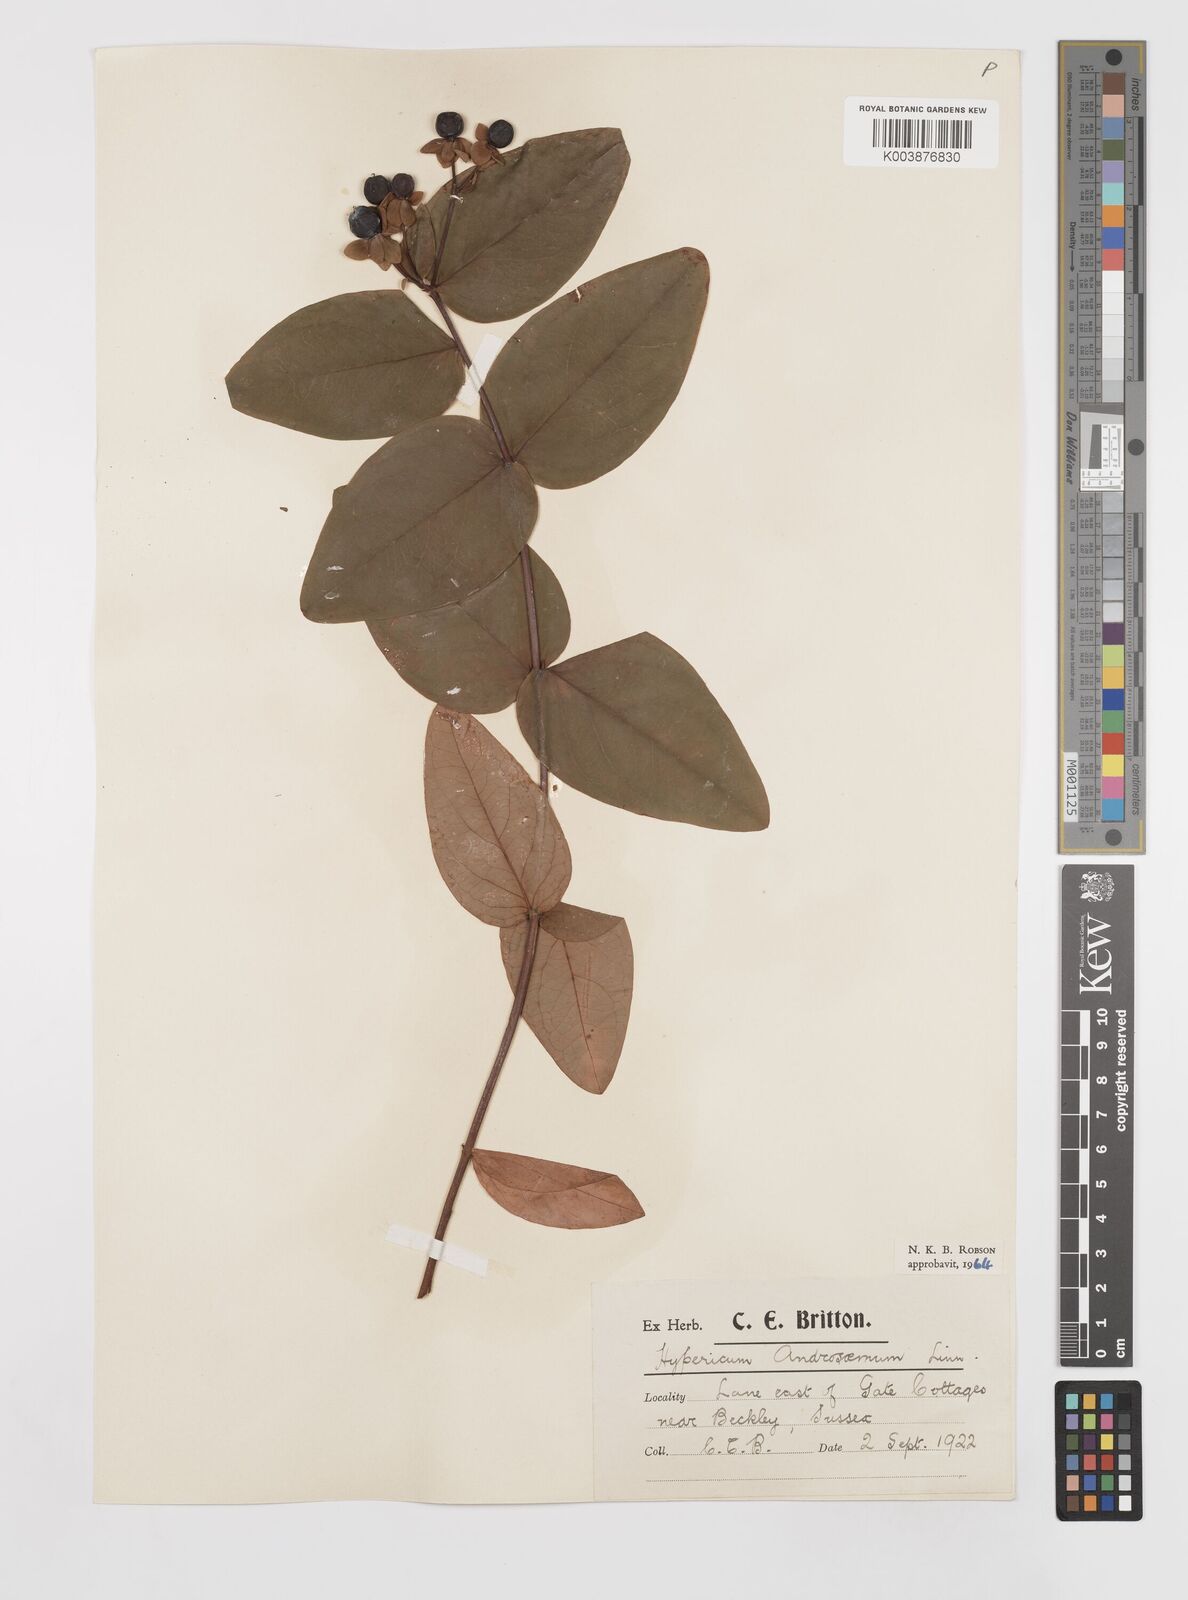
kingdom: Plantae
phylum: Tracheophyta
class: Magnoliopsida
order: Malpighiales
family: Hypericaceae
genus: Hypericum
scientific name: Hypericum androsaemum
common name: Sweet-amber
